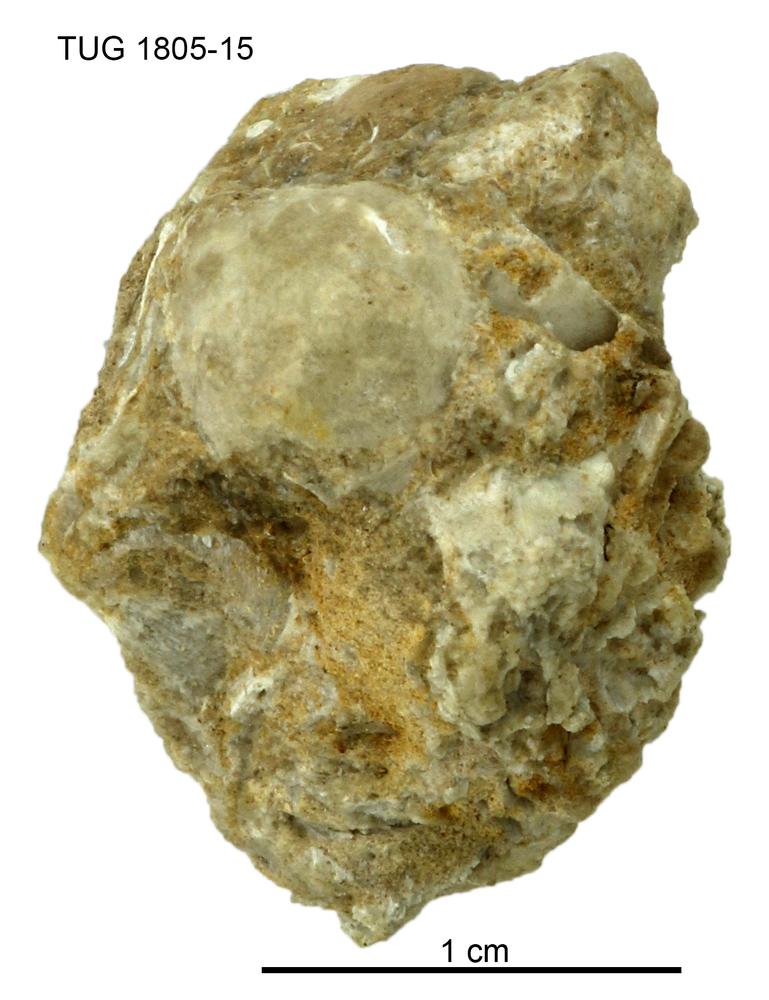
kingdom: Animalia
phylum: Mollusca
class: Gastropoda
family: Patellidae
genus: Patella
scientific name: Patella pustula
